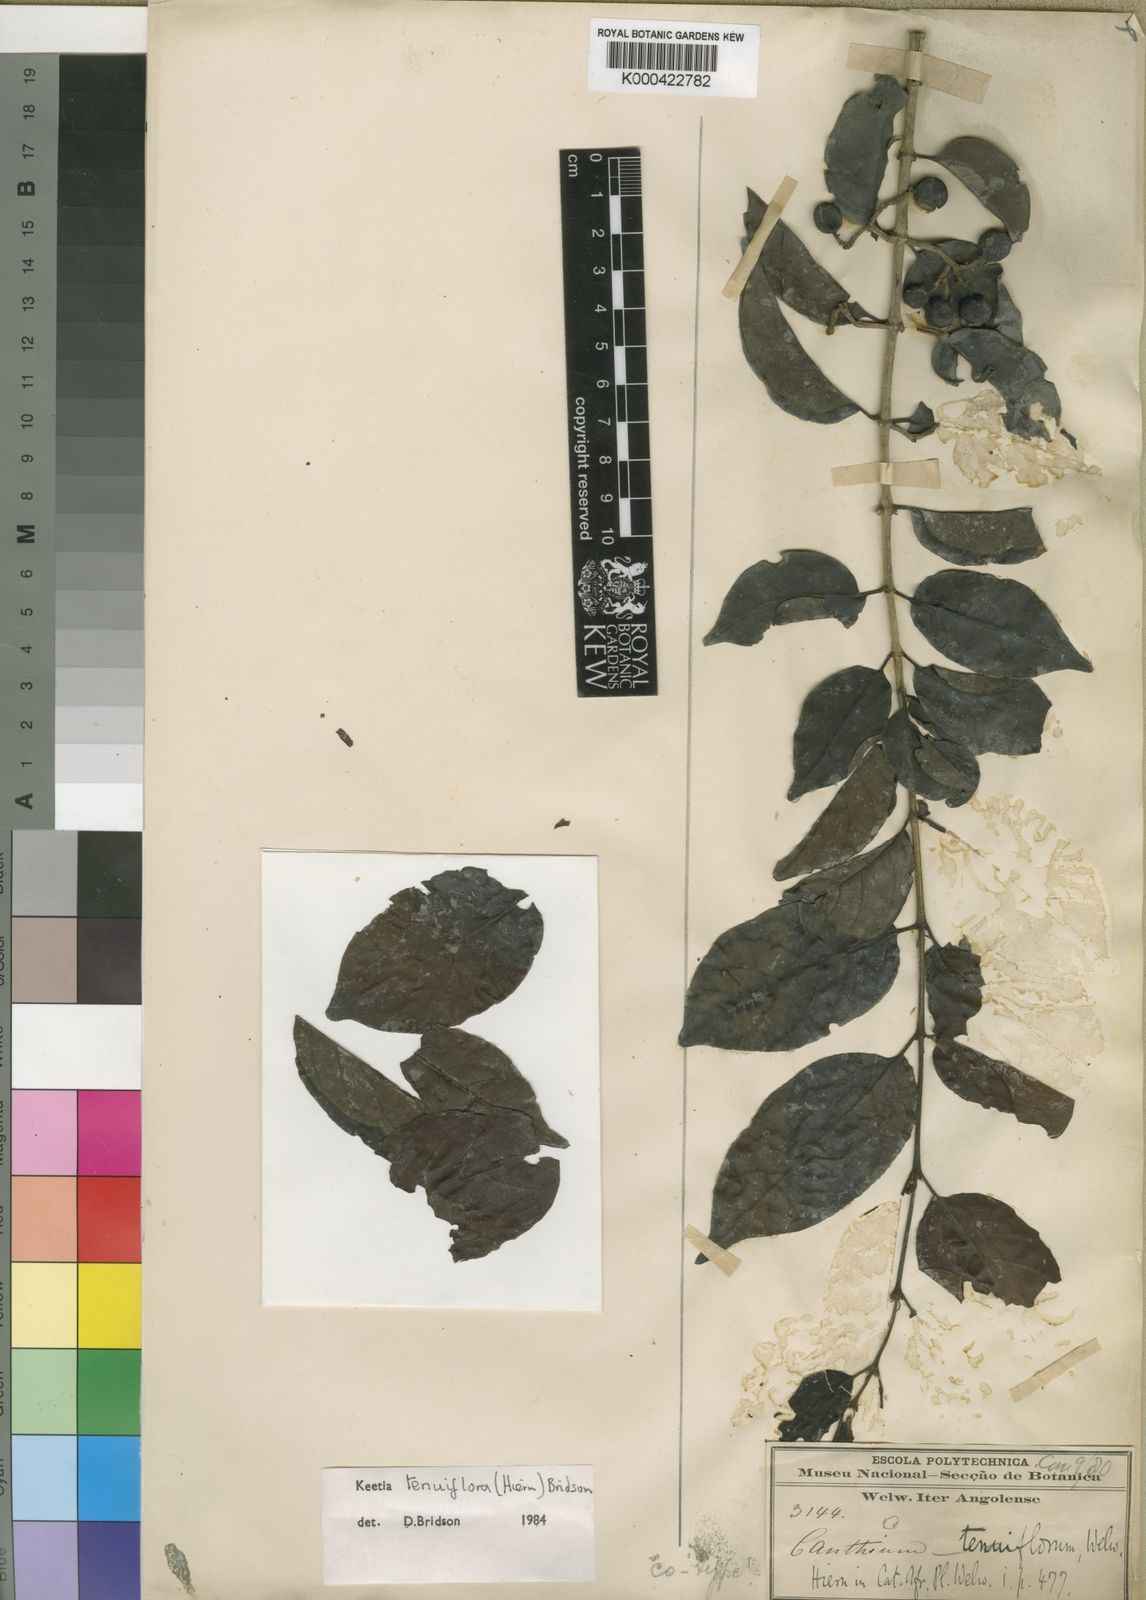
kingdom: Plantae
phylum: Tracheophyta
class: Magnoliopsida
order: Gentianales
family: Rubiaceae
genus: Keetia
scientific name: Keetia tenuiflora
